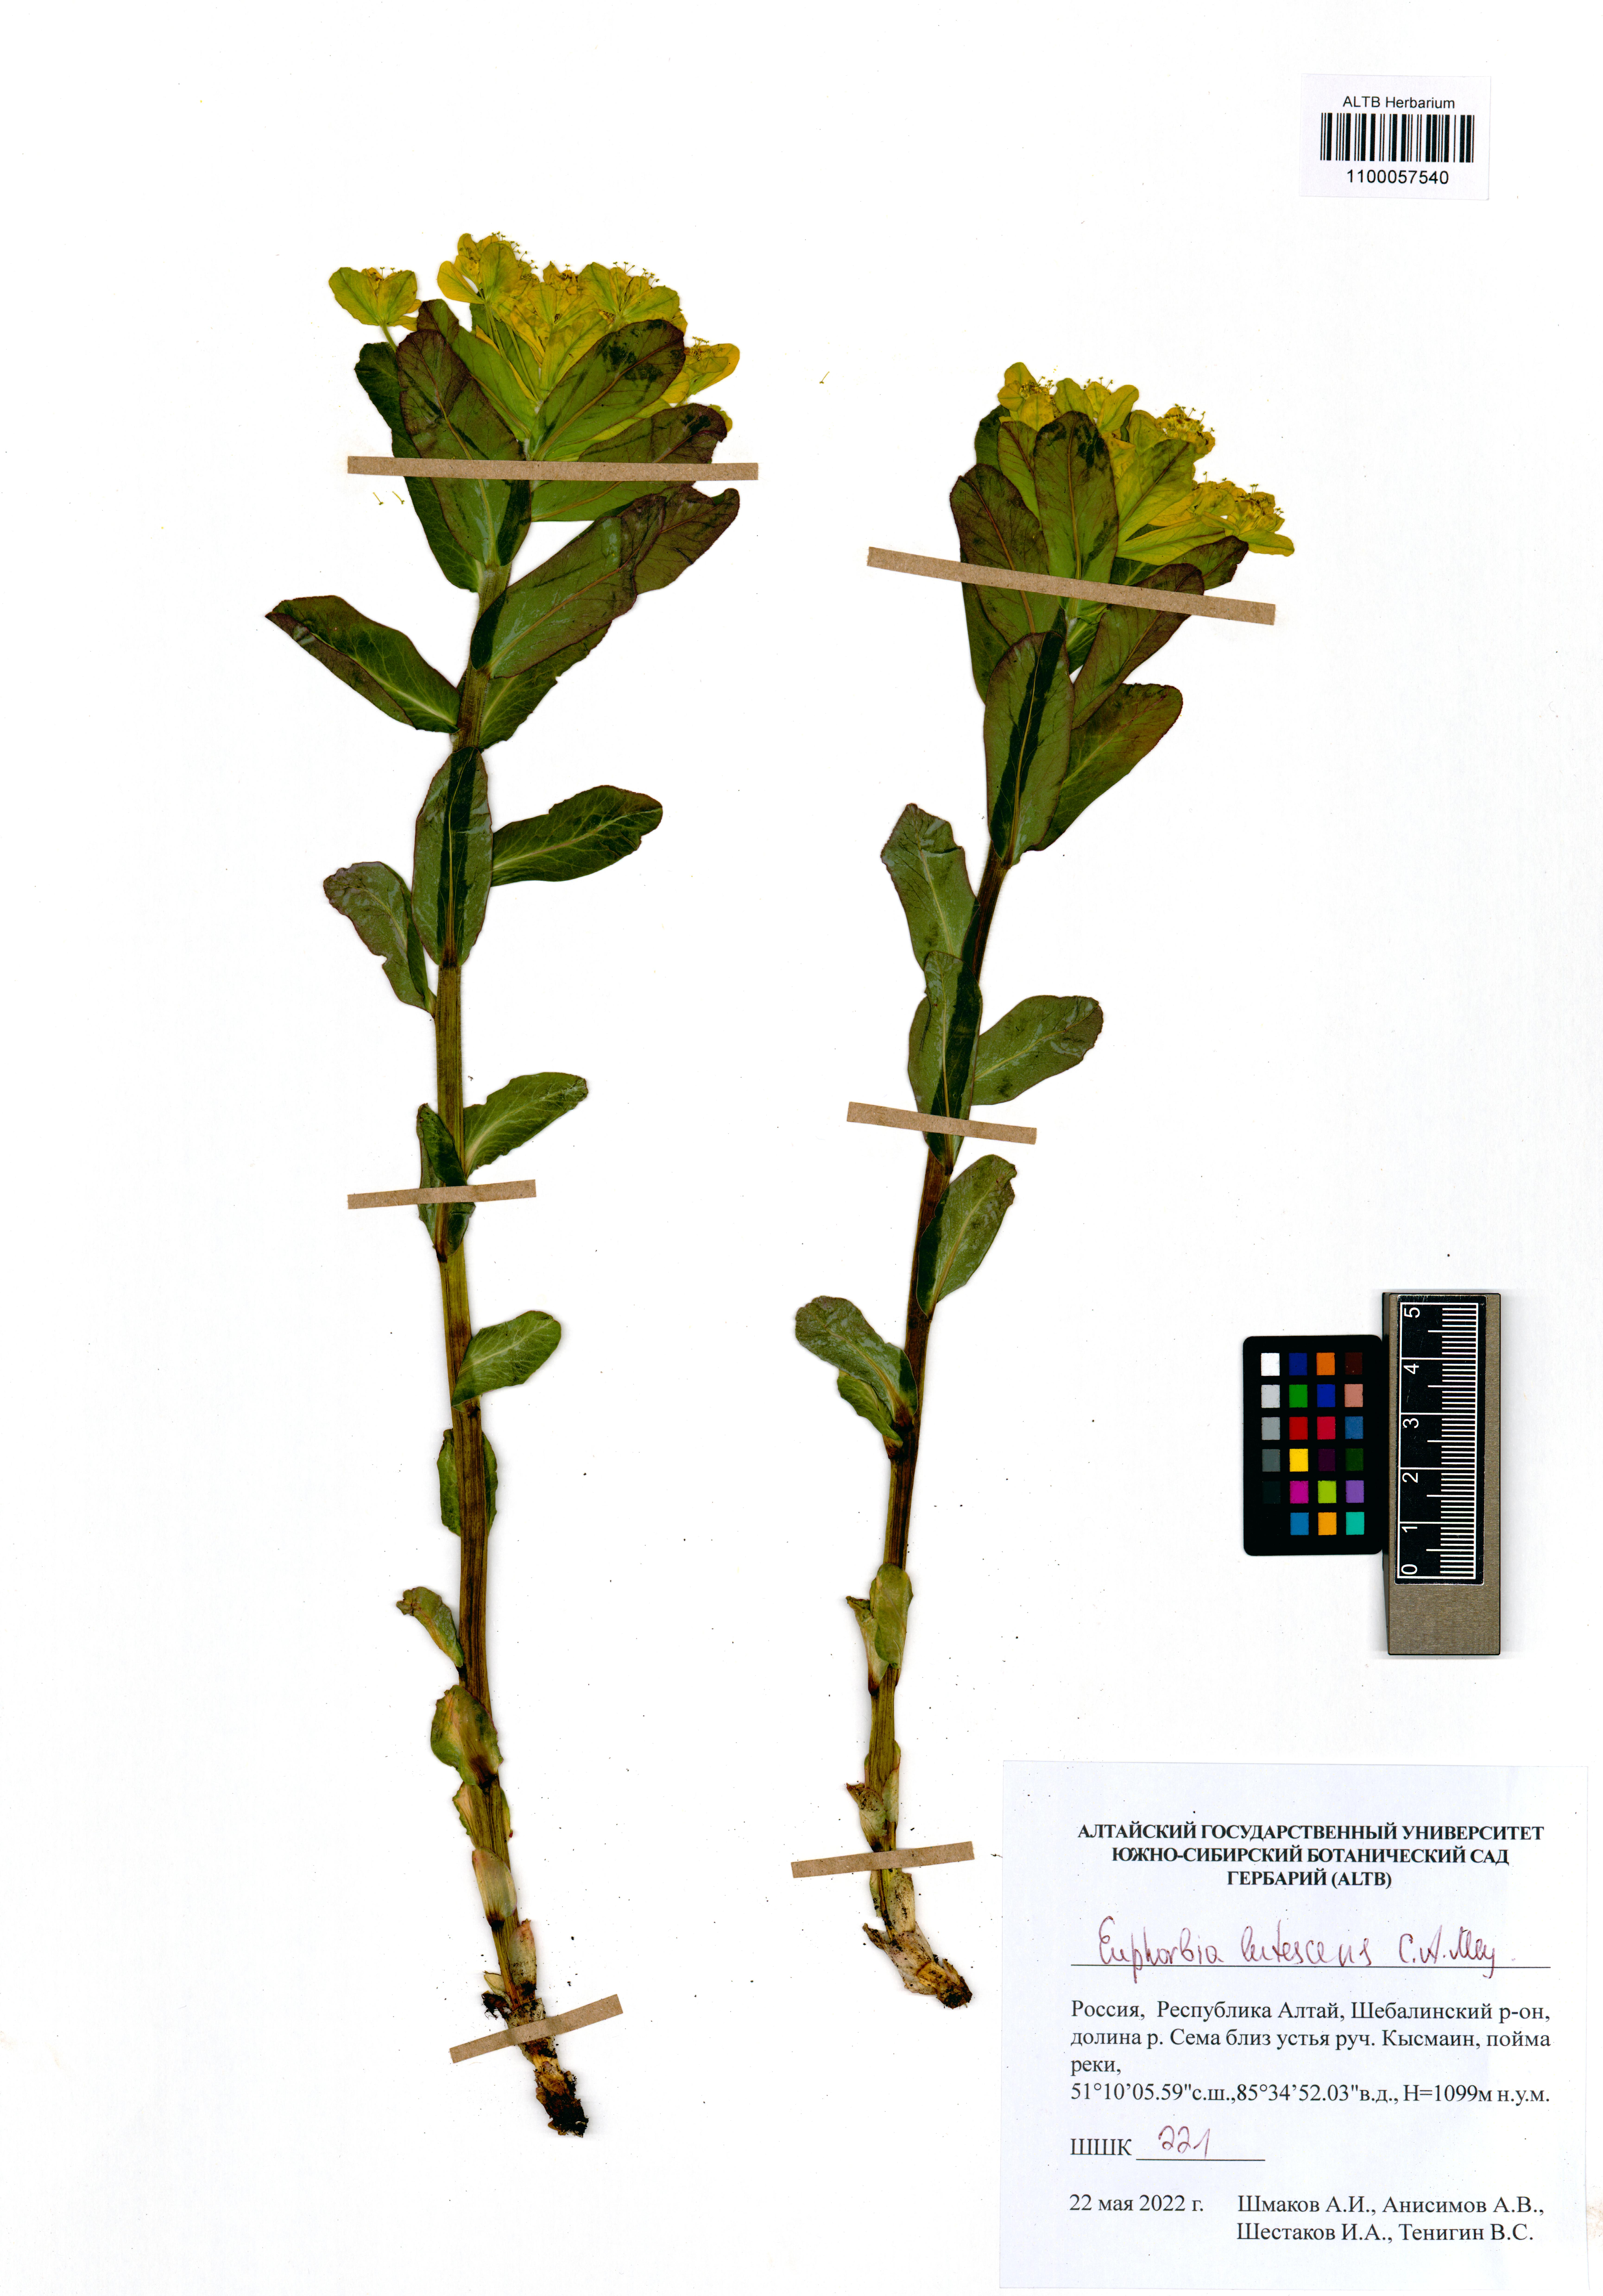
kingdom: Plantae
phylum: Tracheophyta
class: Magnoliopsida
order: Malpighiales
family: Euphorbiaceae
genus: Euphorbia
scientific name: Euphorbia pilosa
